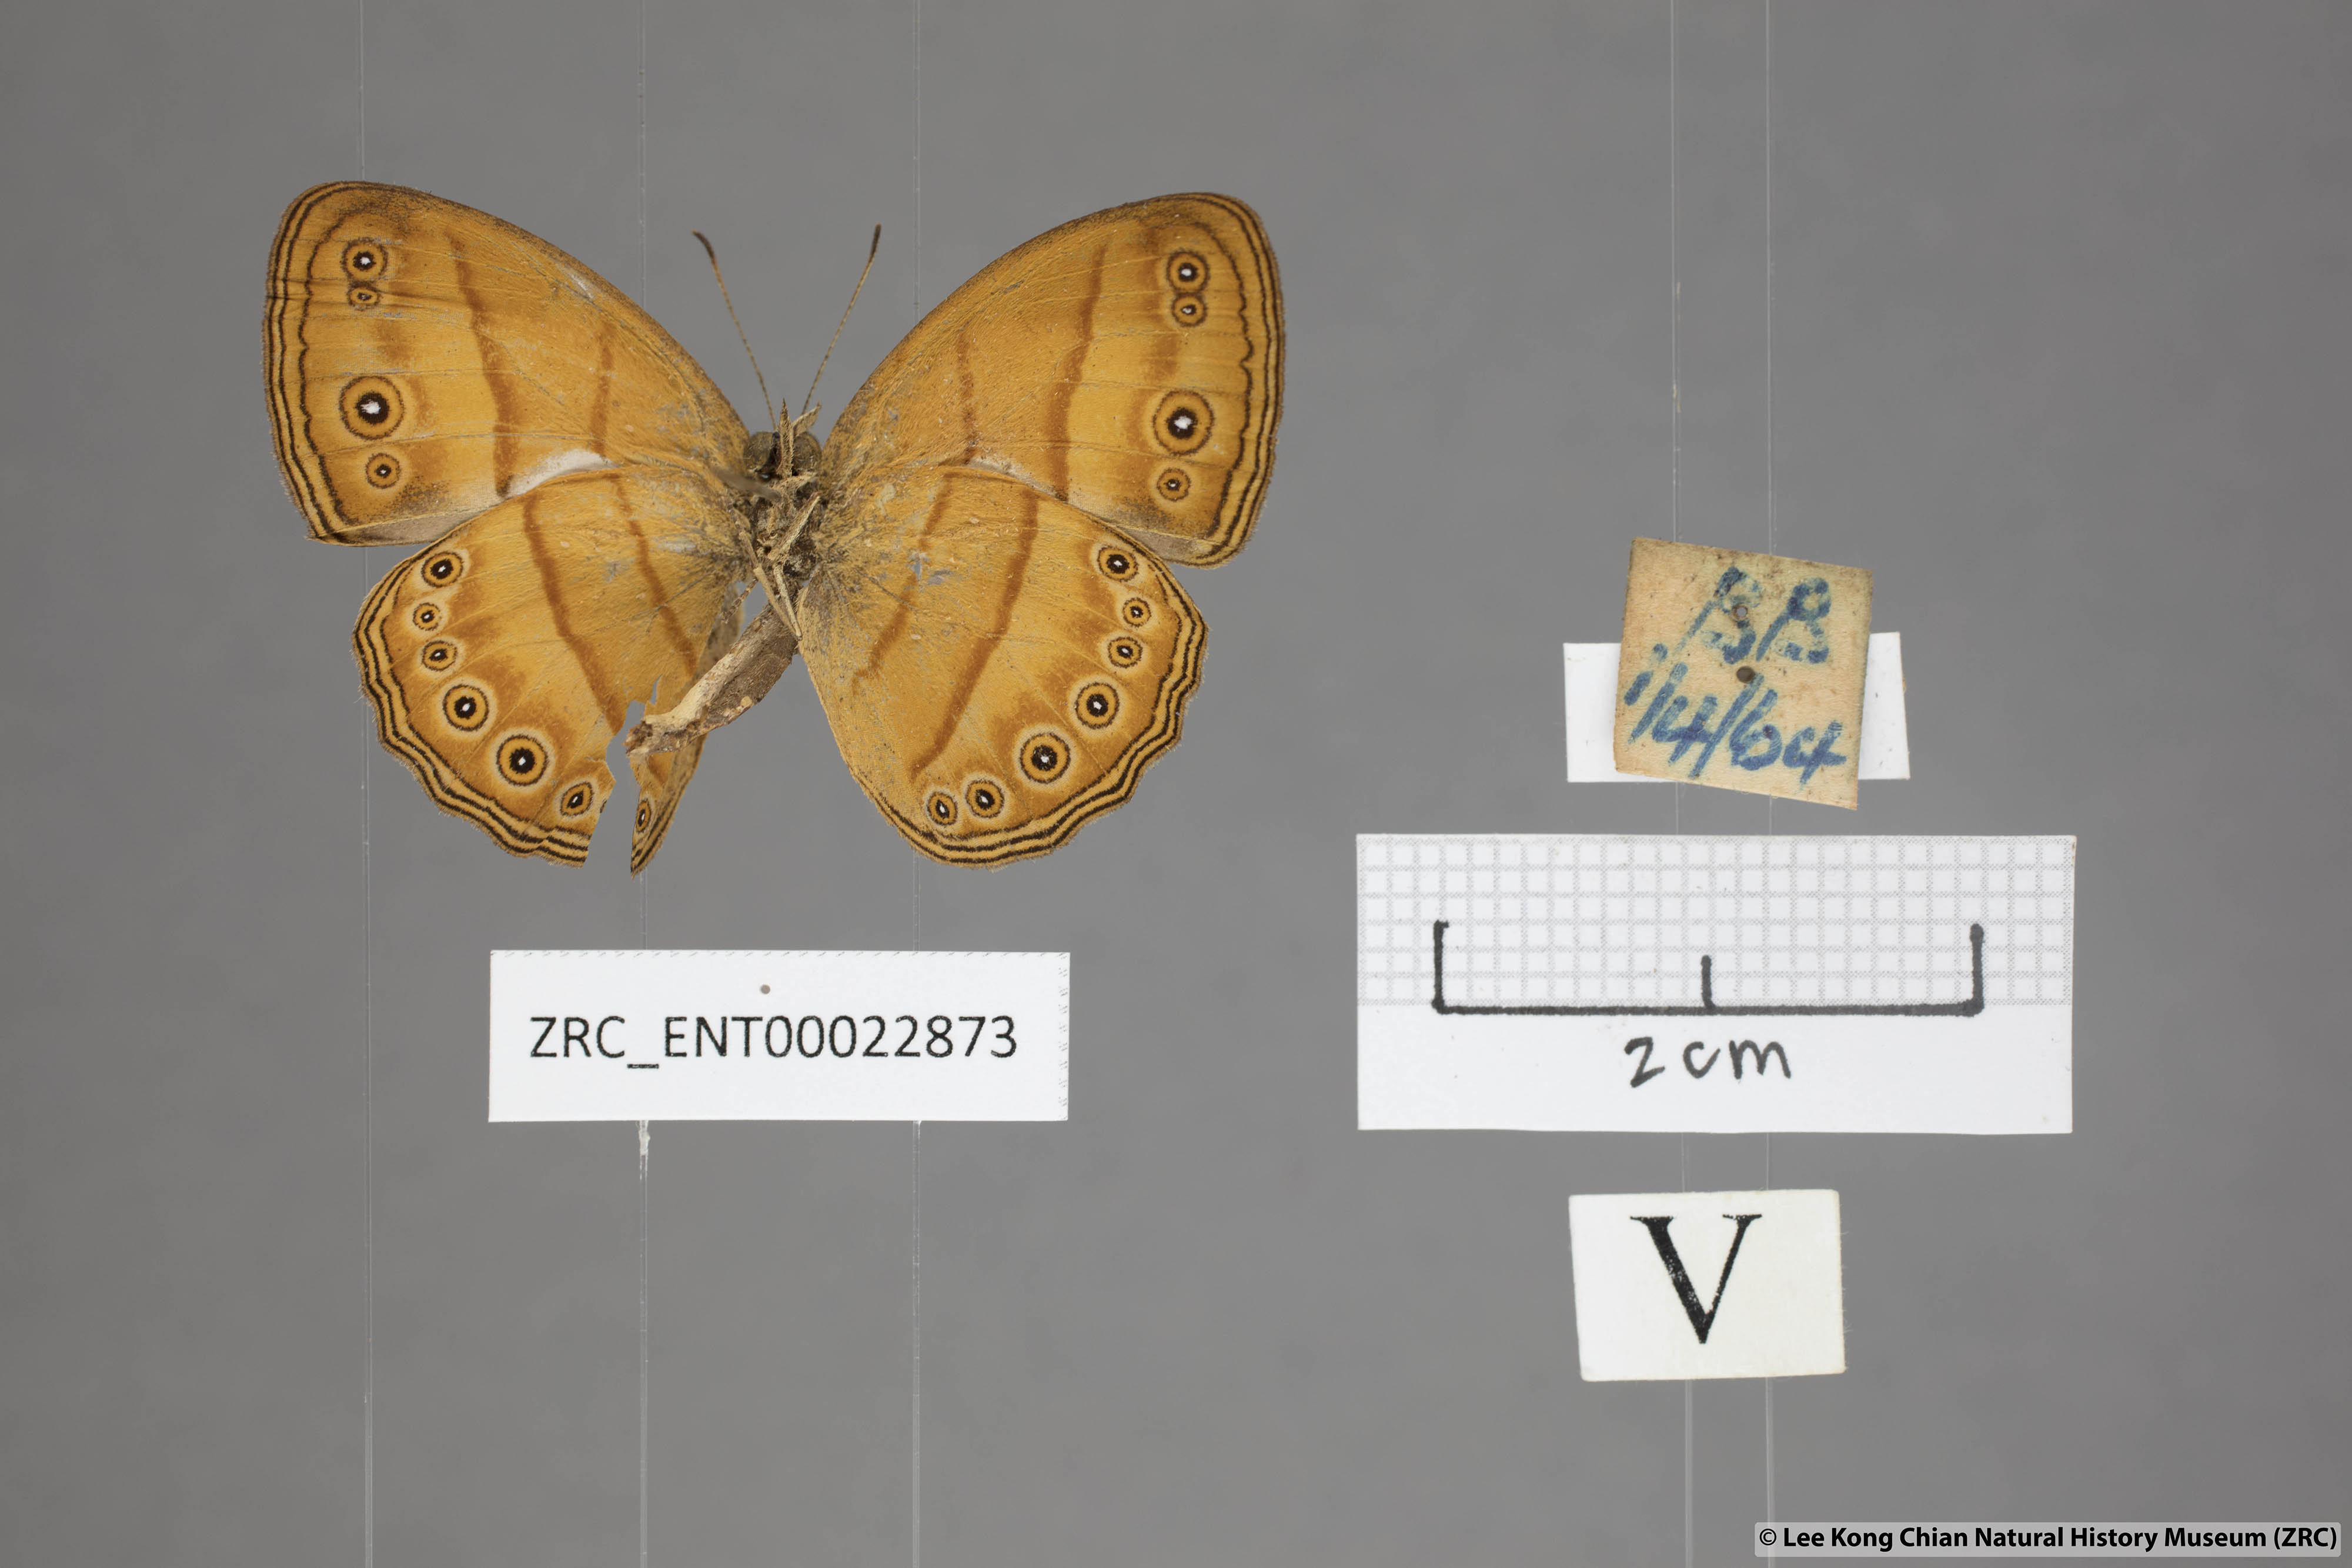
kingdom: Animalia
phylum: Arthropoda
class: Insecta
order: Lepidoptera
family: Nymphalidae
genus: Mycalesis
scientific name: Mycalesis anapita
